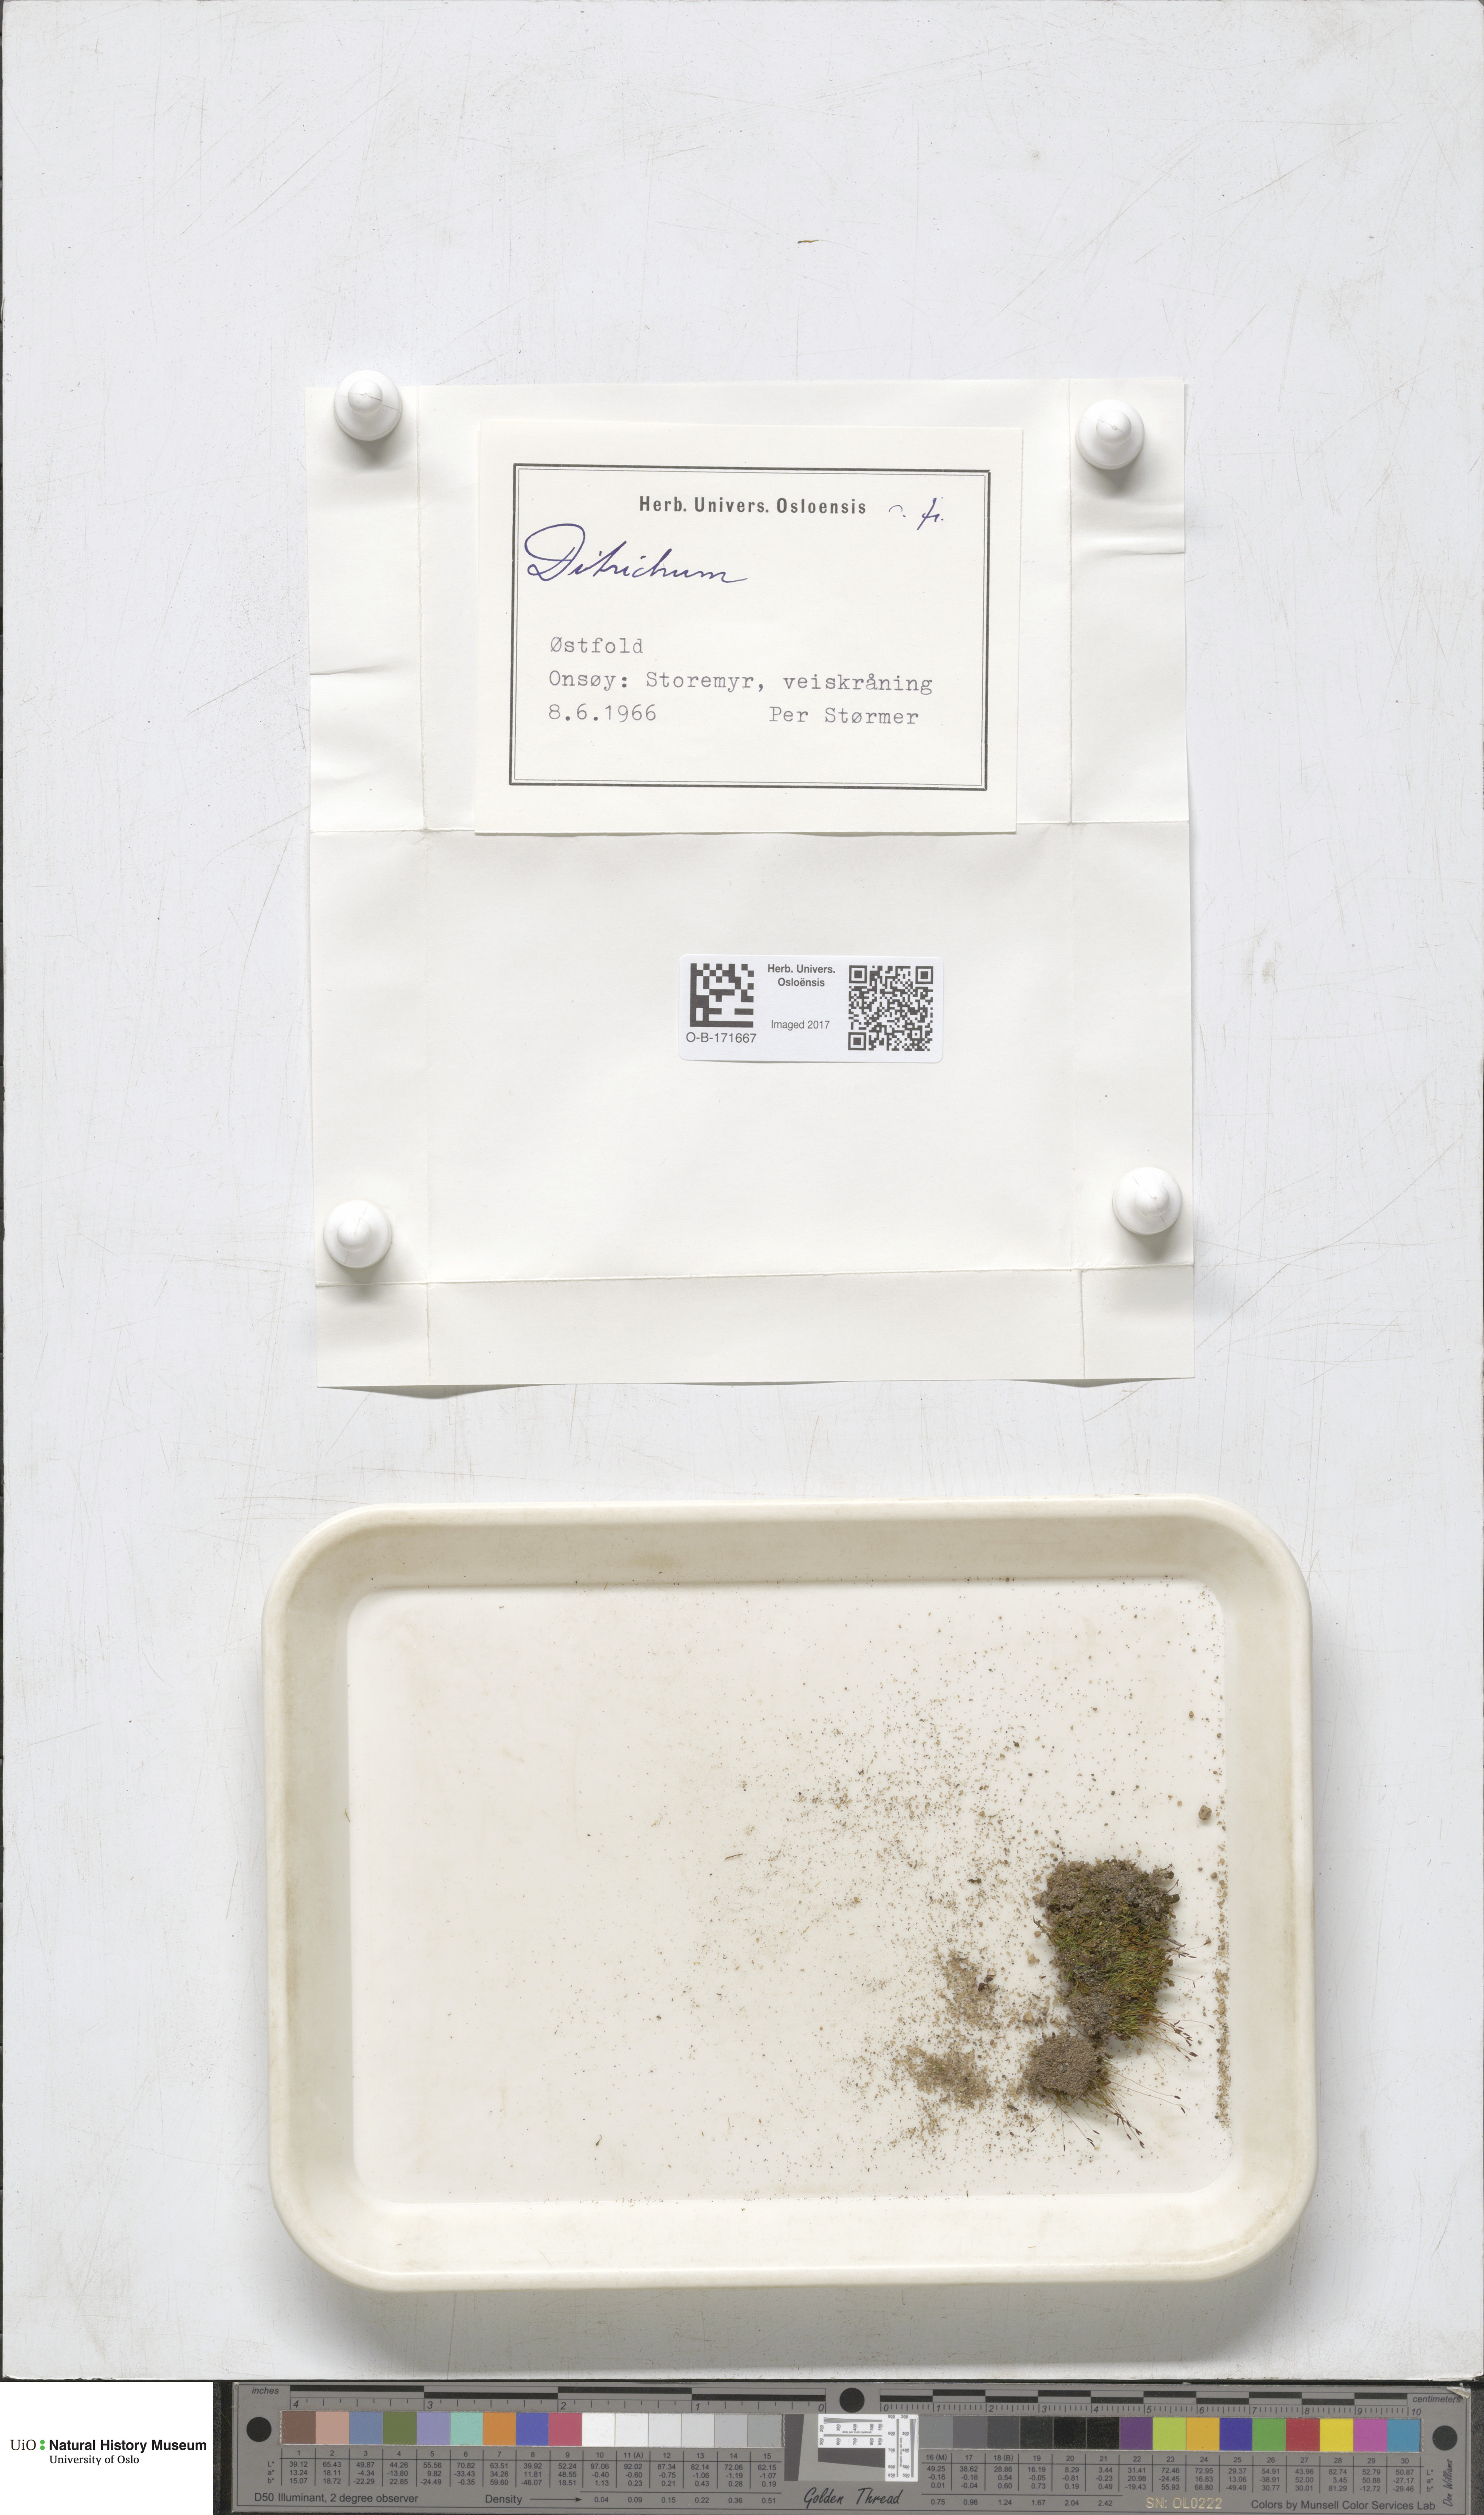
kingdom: Plantae
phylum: Bryophyta
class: Bryopsida
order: Dicranales
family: Ditrichaceae
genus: Ditrichum
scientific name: Ditrichum
